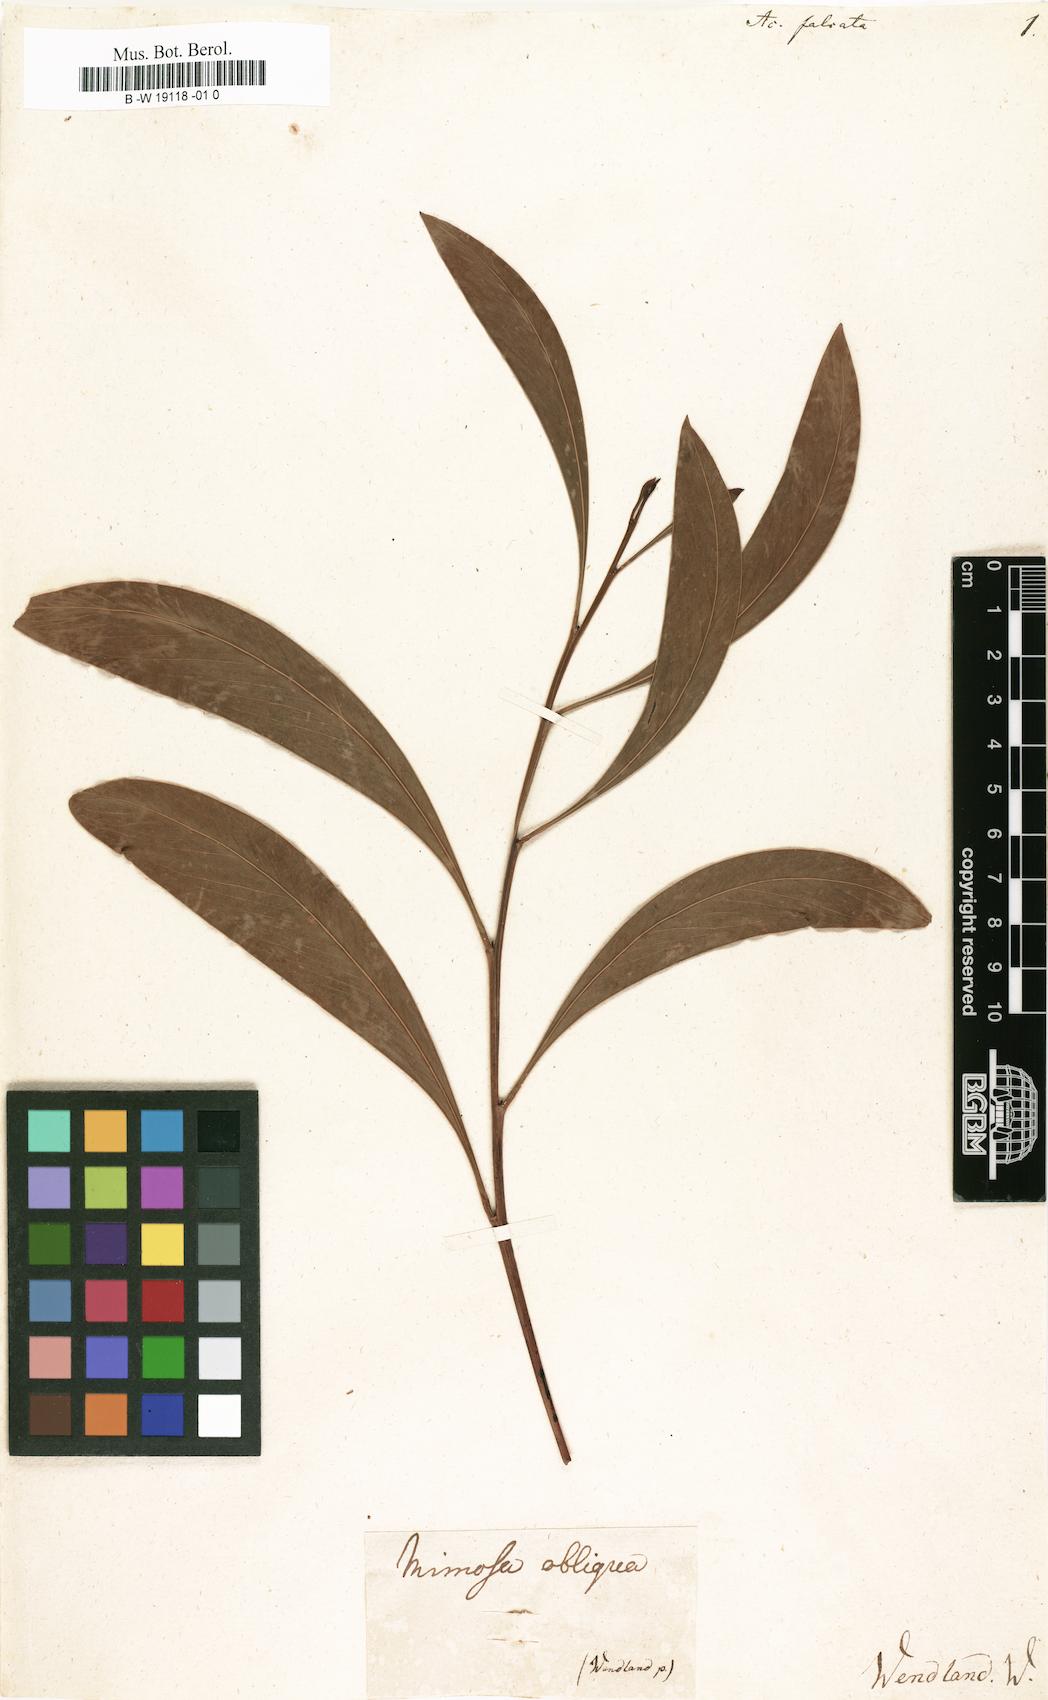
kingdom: Plantae
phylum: Tracheophyta
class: Magnoliopsida
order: Fabales
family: Fabaceae
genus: Acacia
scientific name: Acacia falcata
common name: Burra acacia
